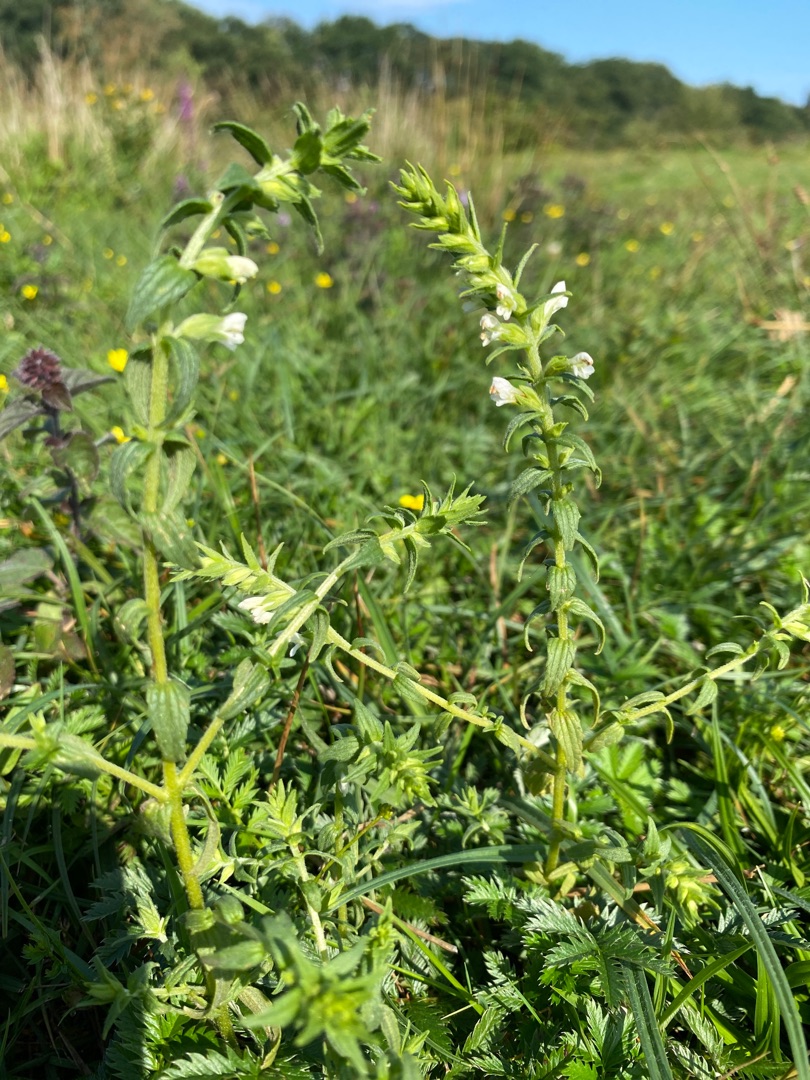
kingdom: Plantae
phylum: Tracheophyta
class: Magnoliopsida
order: Lamiales
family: Orobanchaceae
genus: Odontites
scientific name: Odontites vulgaris
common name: Høst-rødtop
